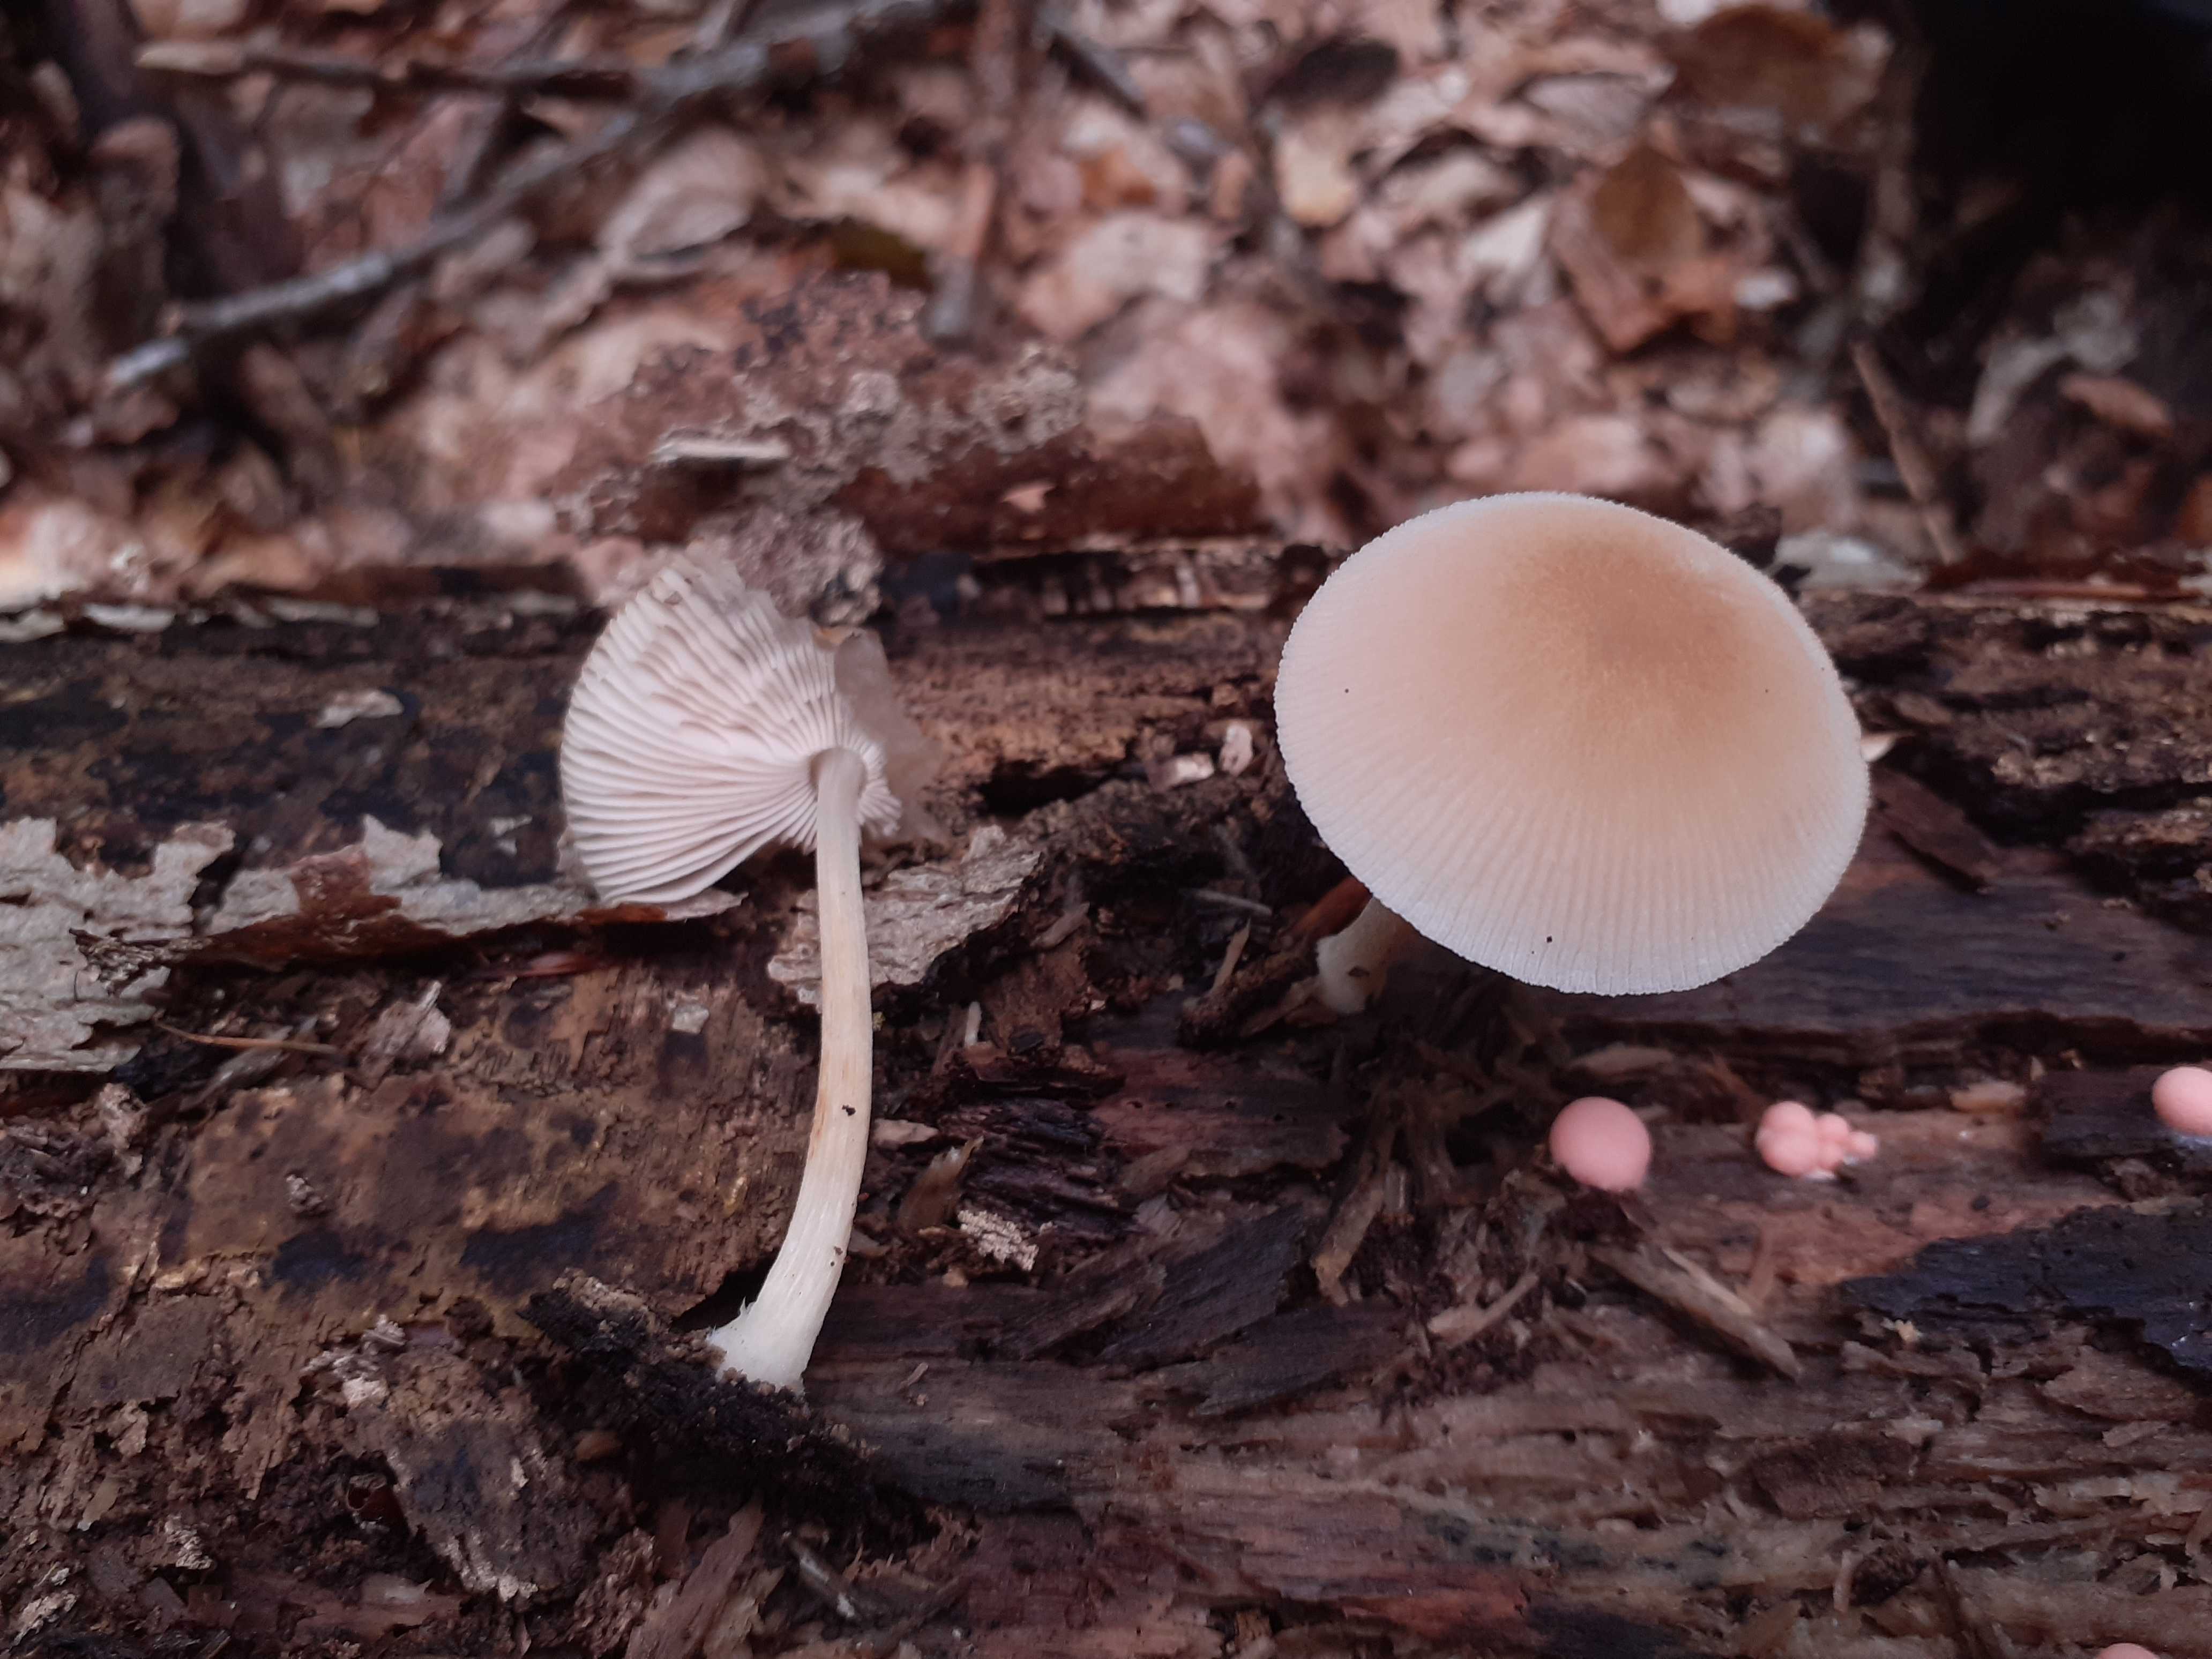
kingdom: Fungi
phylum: Basidiomycota
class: Agaricomycetes
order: Agaricales
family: Pluteaceae
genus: Pluteus
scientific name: Pluteus semibulbosus
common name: knoldet skærmhat
